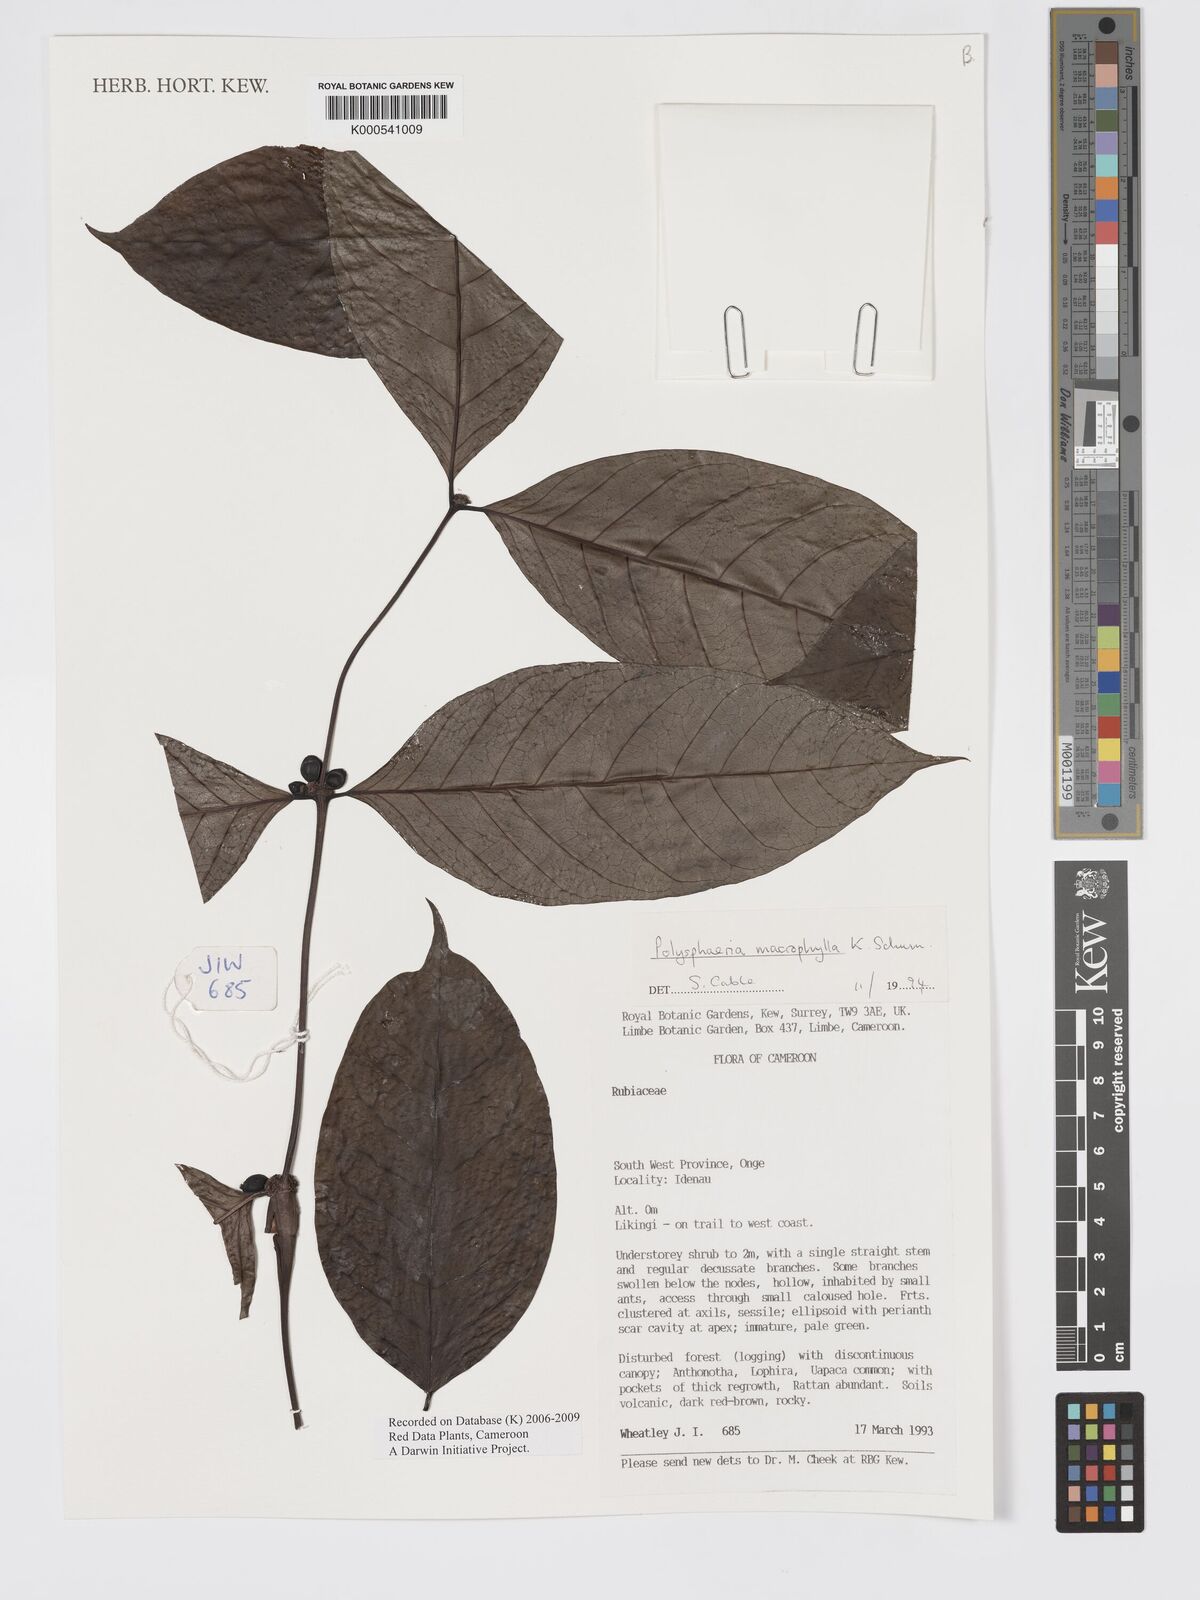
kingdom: Plantae
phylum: Tracheophyta
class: Magnoliopsida
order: Gentianales
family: Rubiaceae
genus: Polysphaeria
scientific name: Polysphaeria macrophylla
